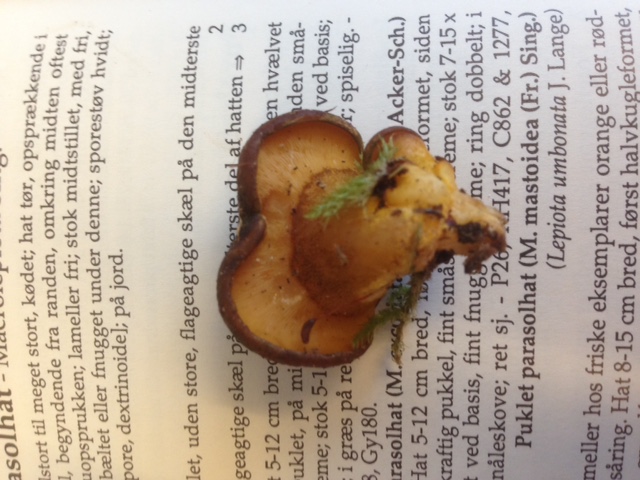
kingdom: Fungi
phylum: Basidiomycota
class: Agaricomycetes
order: Agaricales
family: Sarcomyxaceae
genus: Sarcomyxa
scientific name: Sarcomyxa serotina
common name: gummihat
